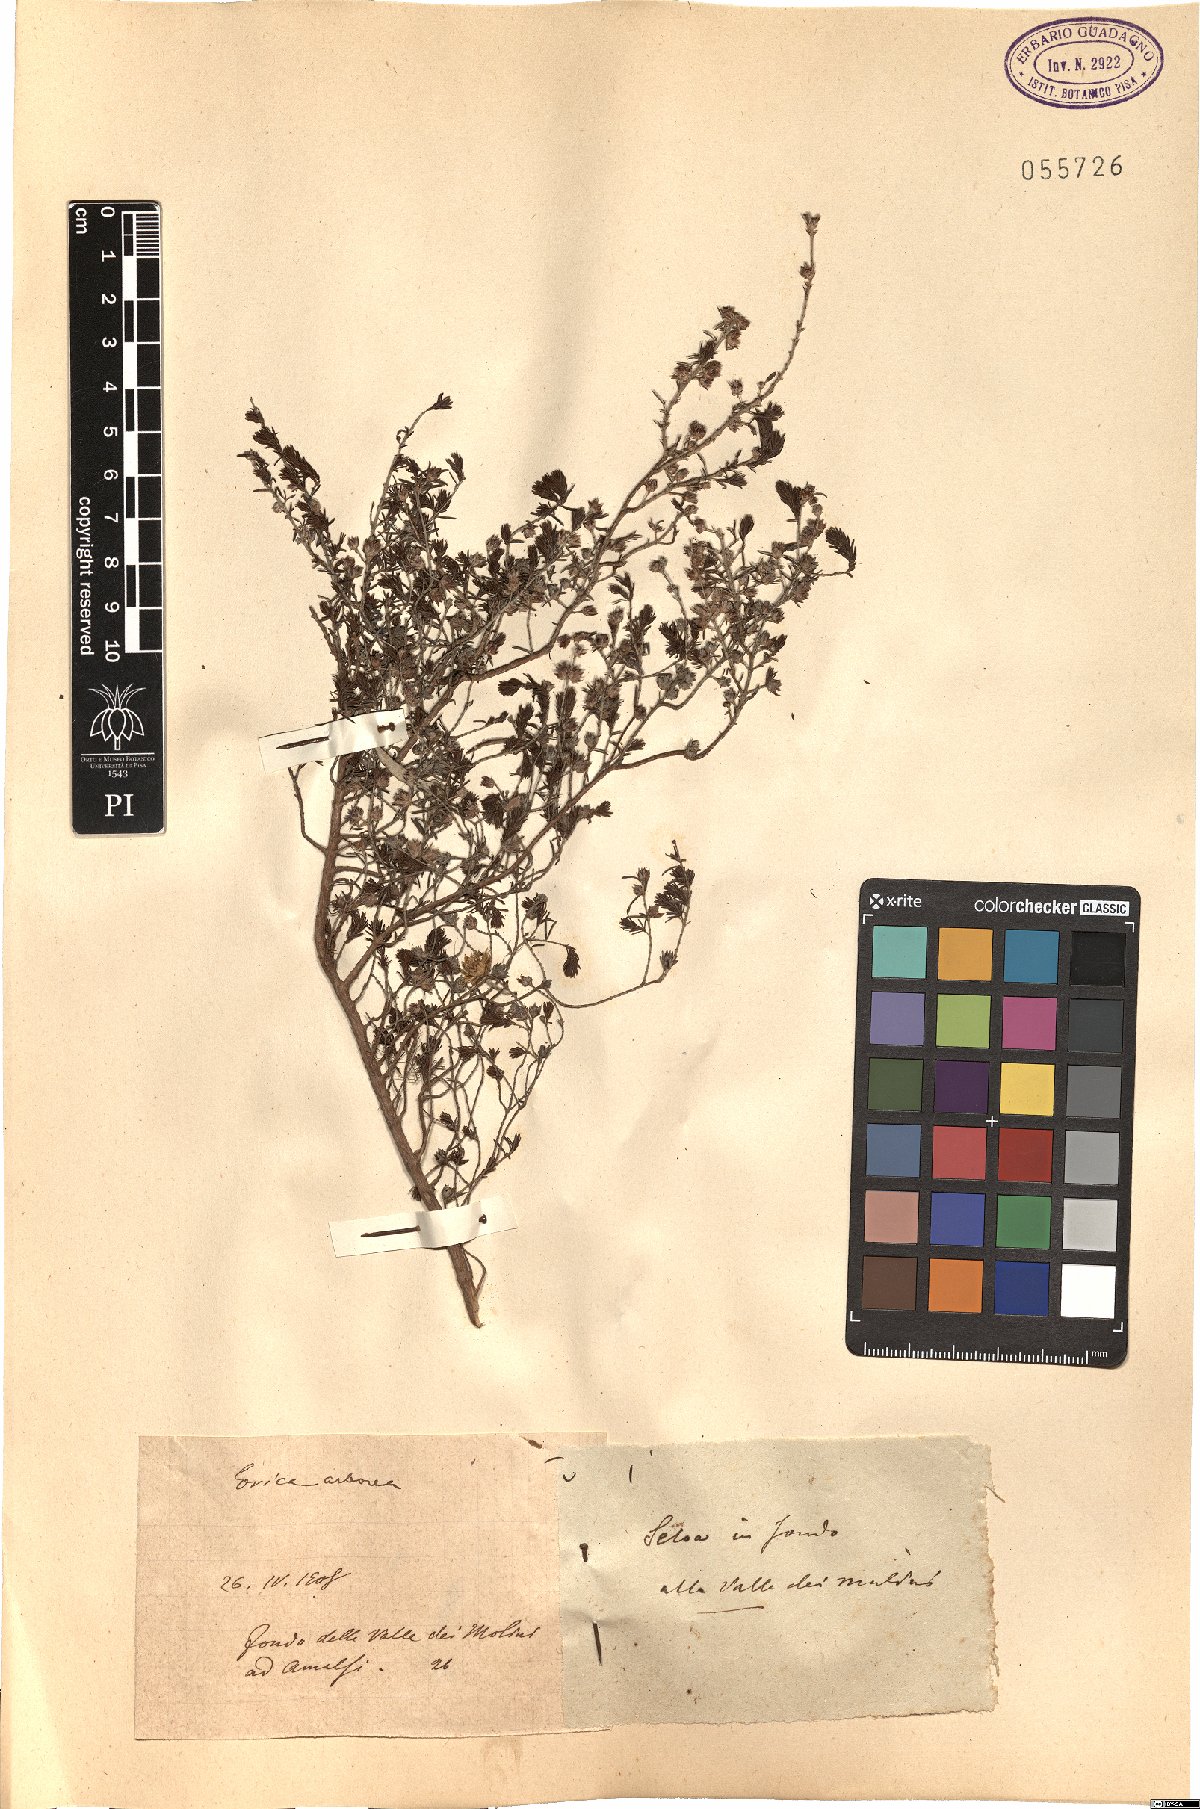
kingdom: Plantae
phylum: Tracheophyta
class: Magnoliopsida
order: Ericales
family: Ericaceae
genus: Erica
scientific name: Erica arborea
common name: Tree heath
